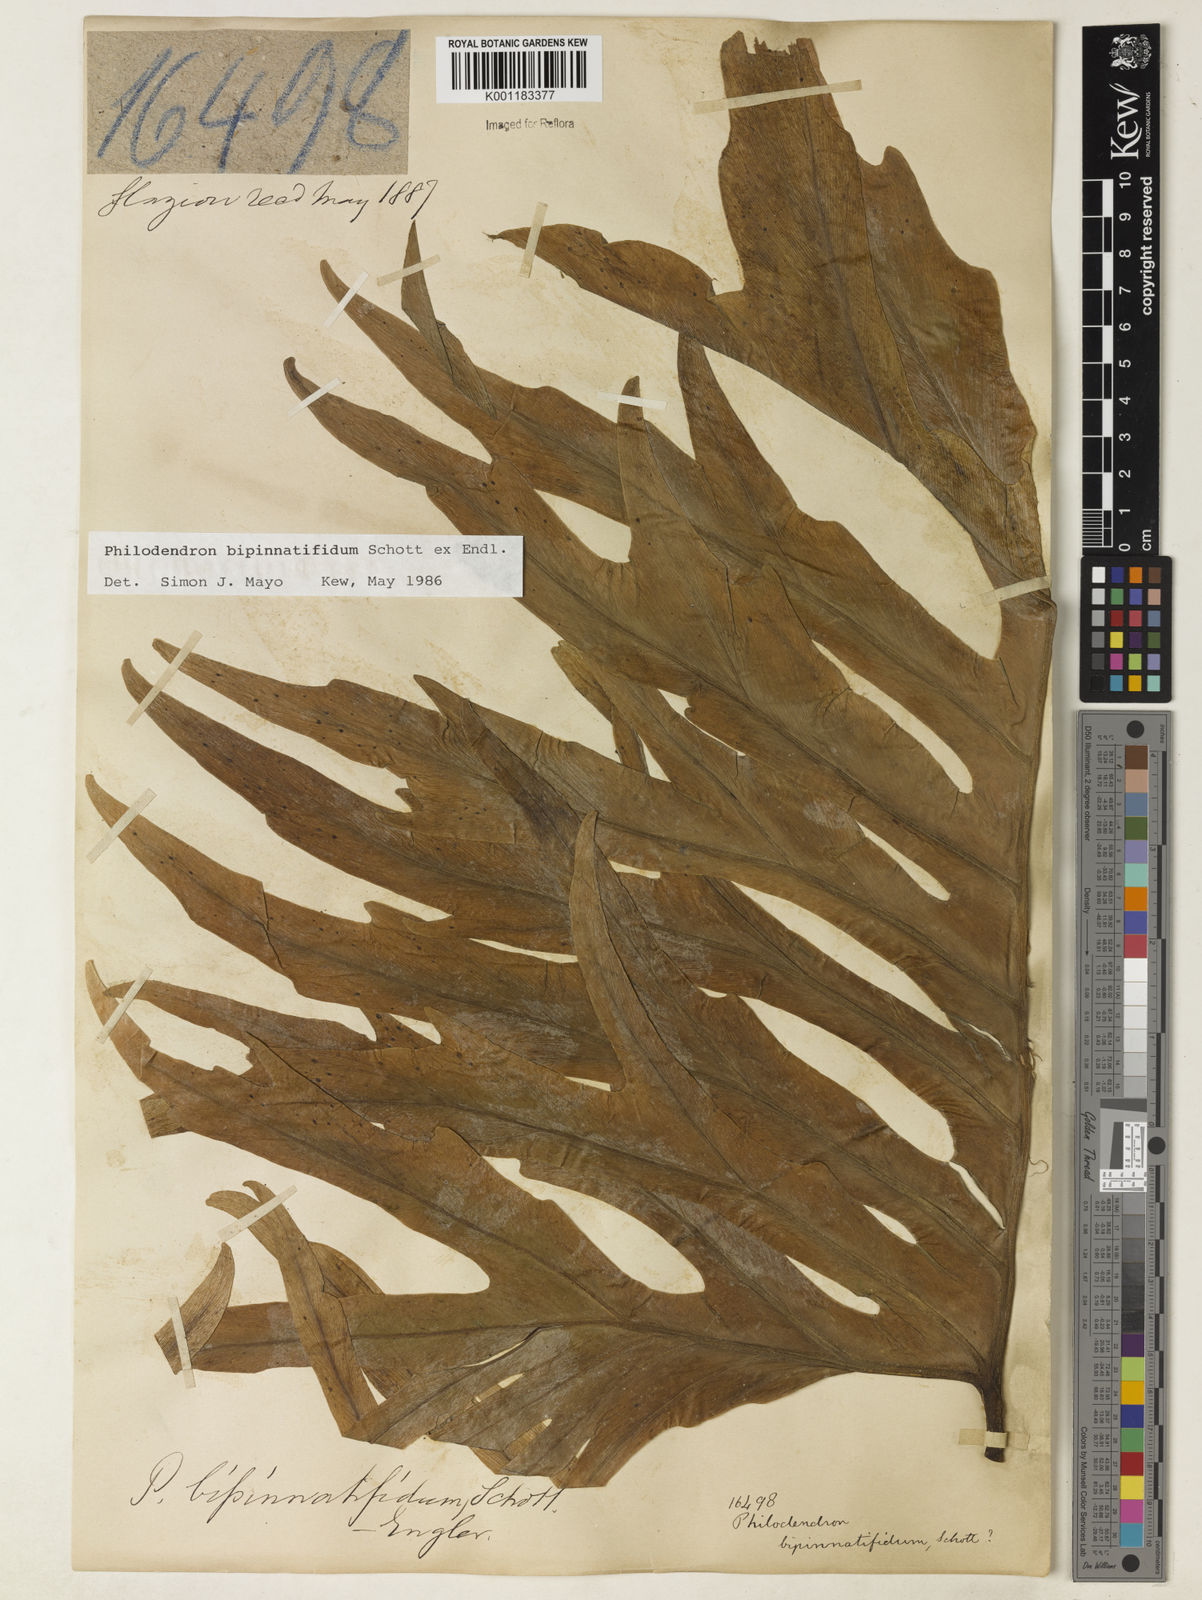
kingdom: Plantae
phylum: Tracheophyta
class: Liliopsida
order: Alismatales
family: Araceae
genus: Philodendron
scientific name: Philodendron
